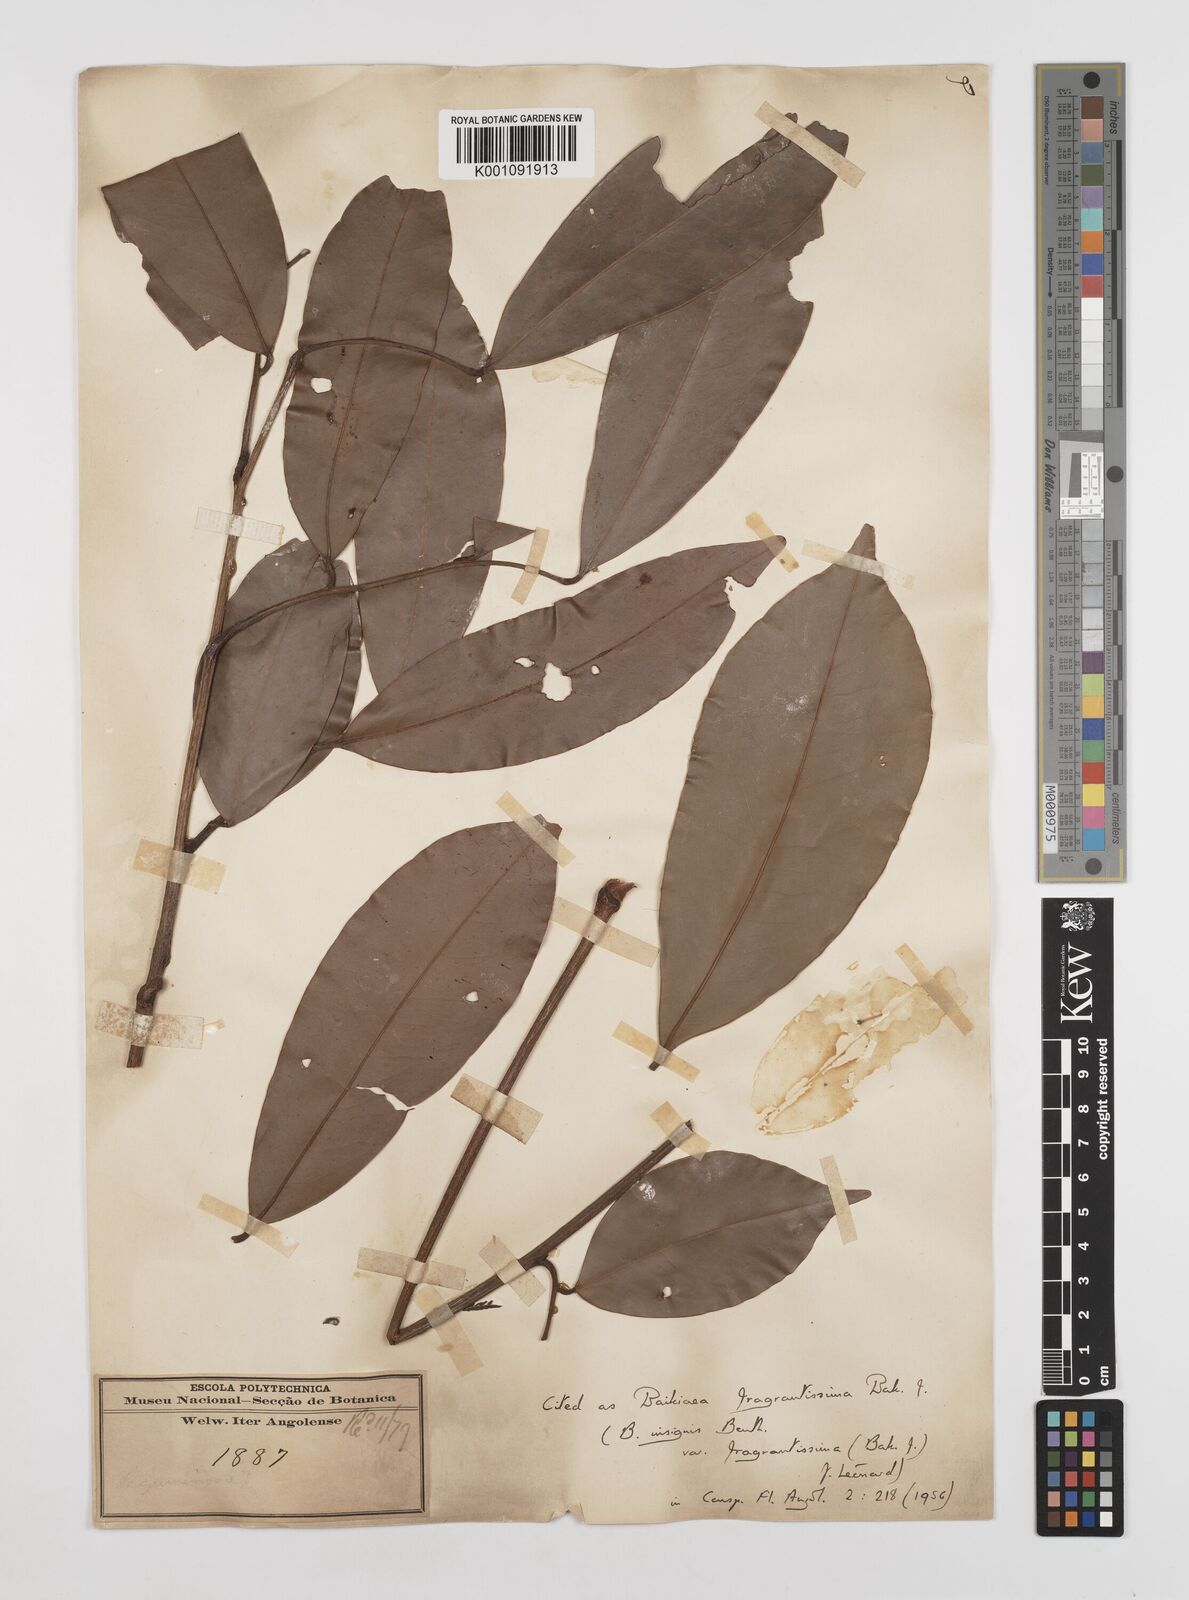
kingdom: Plantae
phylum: Tracheophyta
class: Magnoliopsida
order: Fabales
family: Fabaceae
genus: Baikiaea
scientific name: Baikiaea insignis
